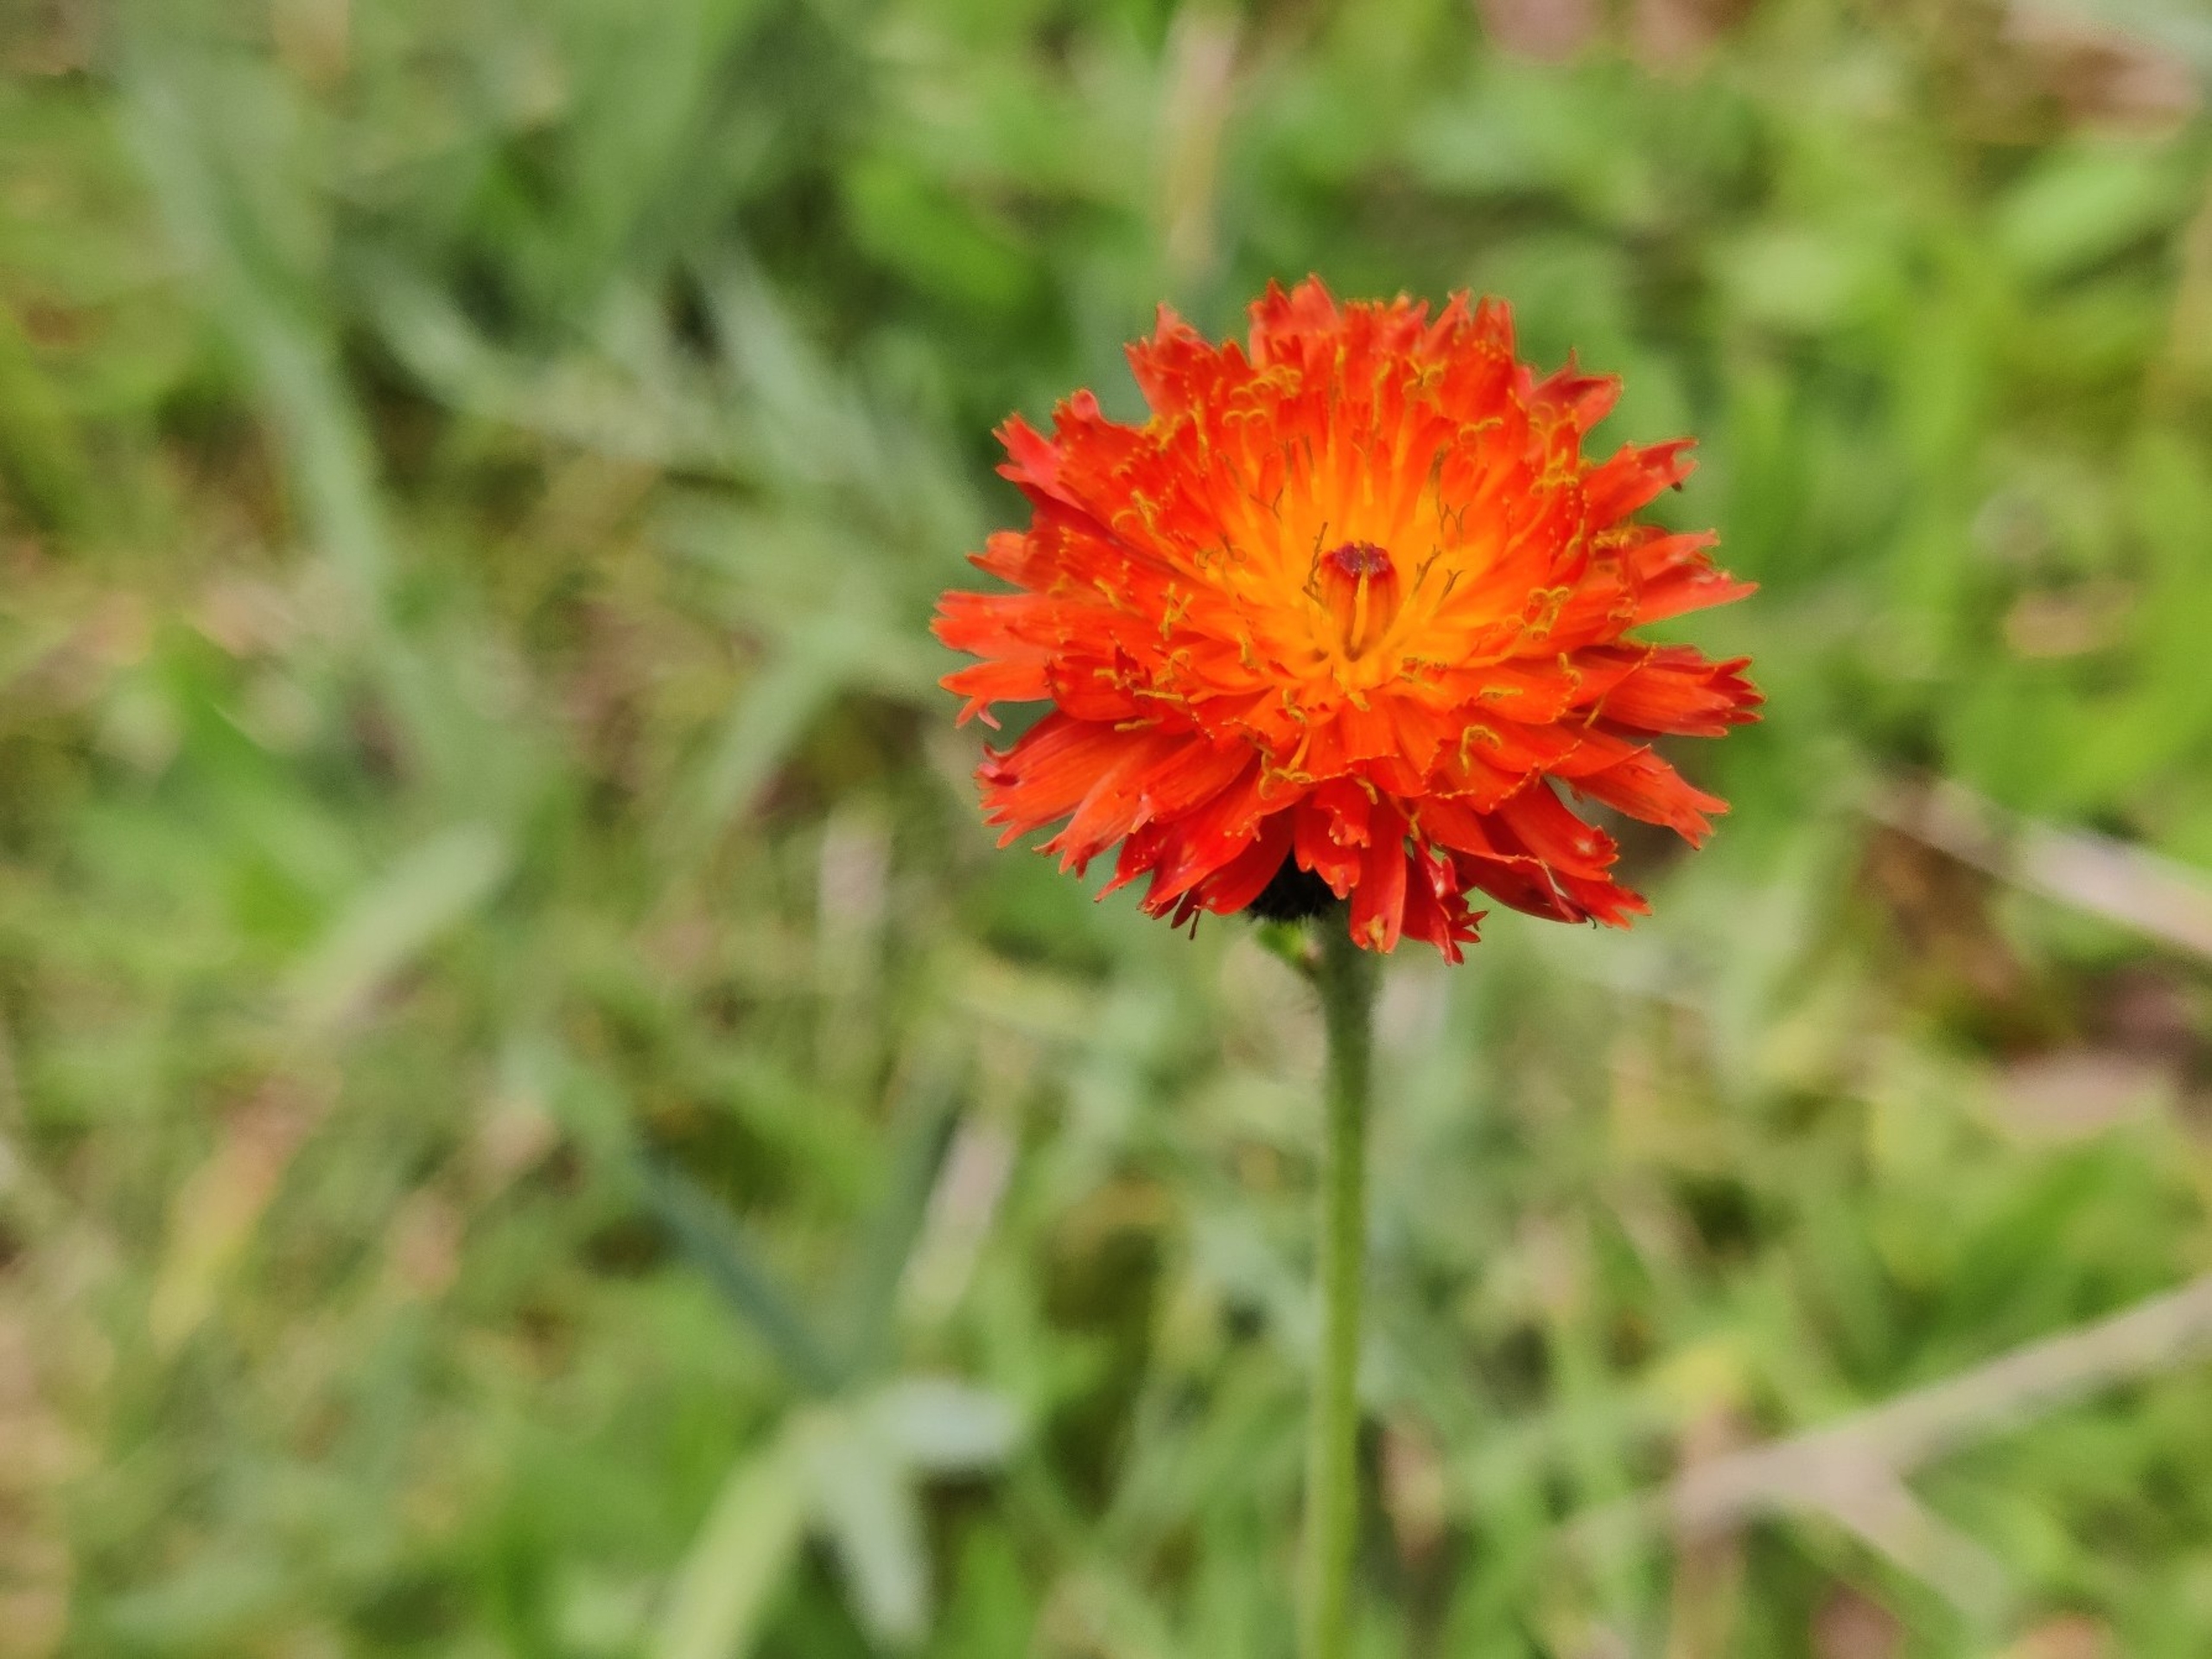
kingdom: Plantae
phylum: Tracheophyta
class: Magnoliopsida
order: Asterales
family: Asteraceae
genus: Pilosella
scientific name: Pilosella aurantiaca
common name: Pomerans-høgeurt
